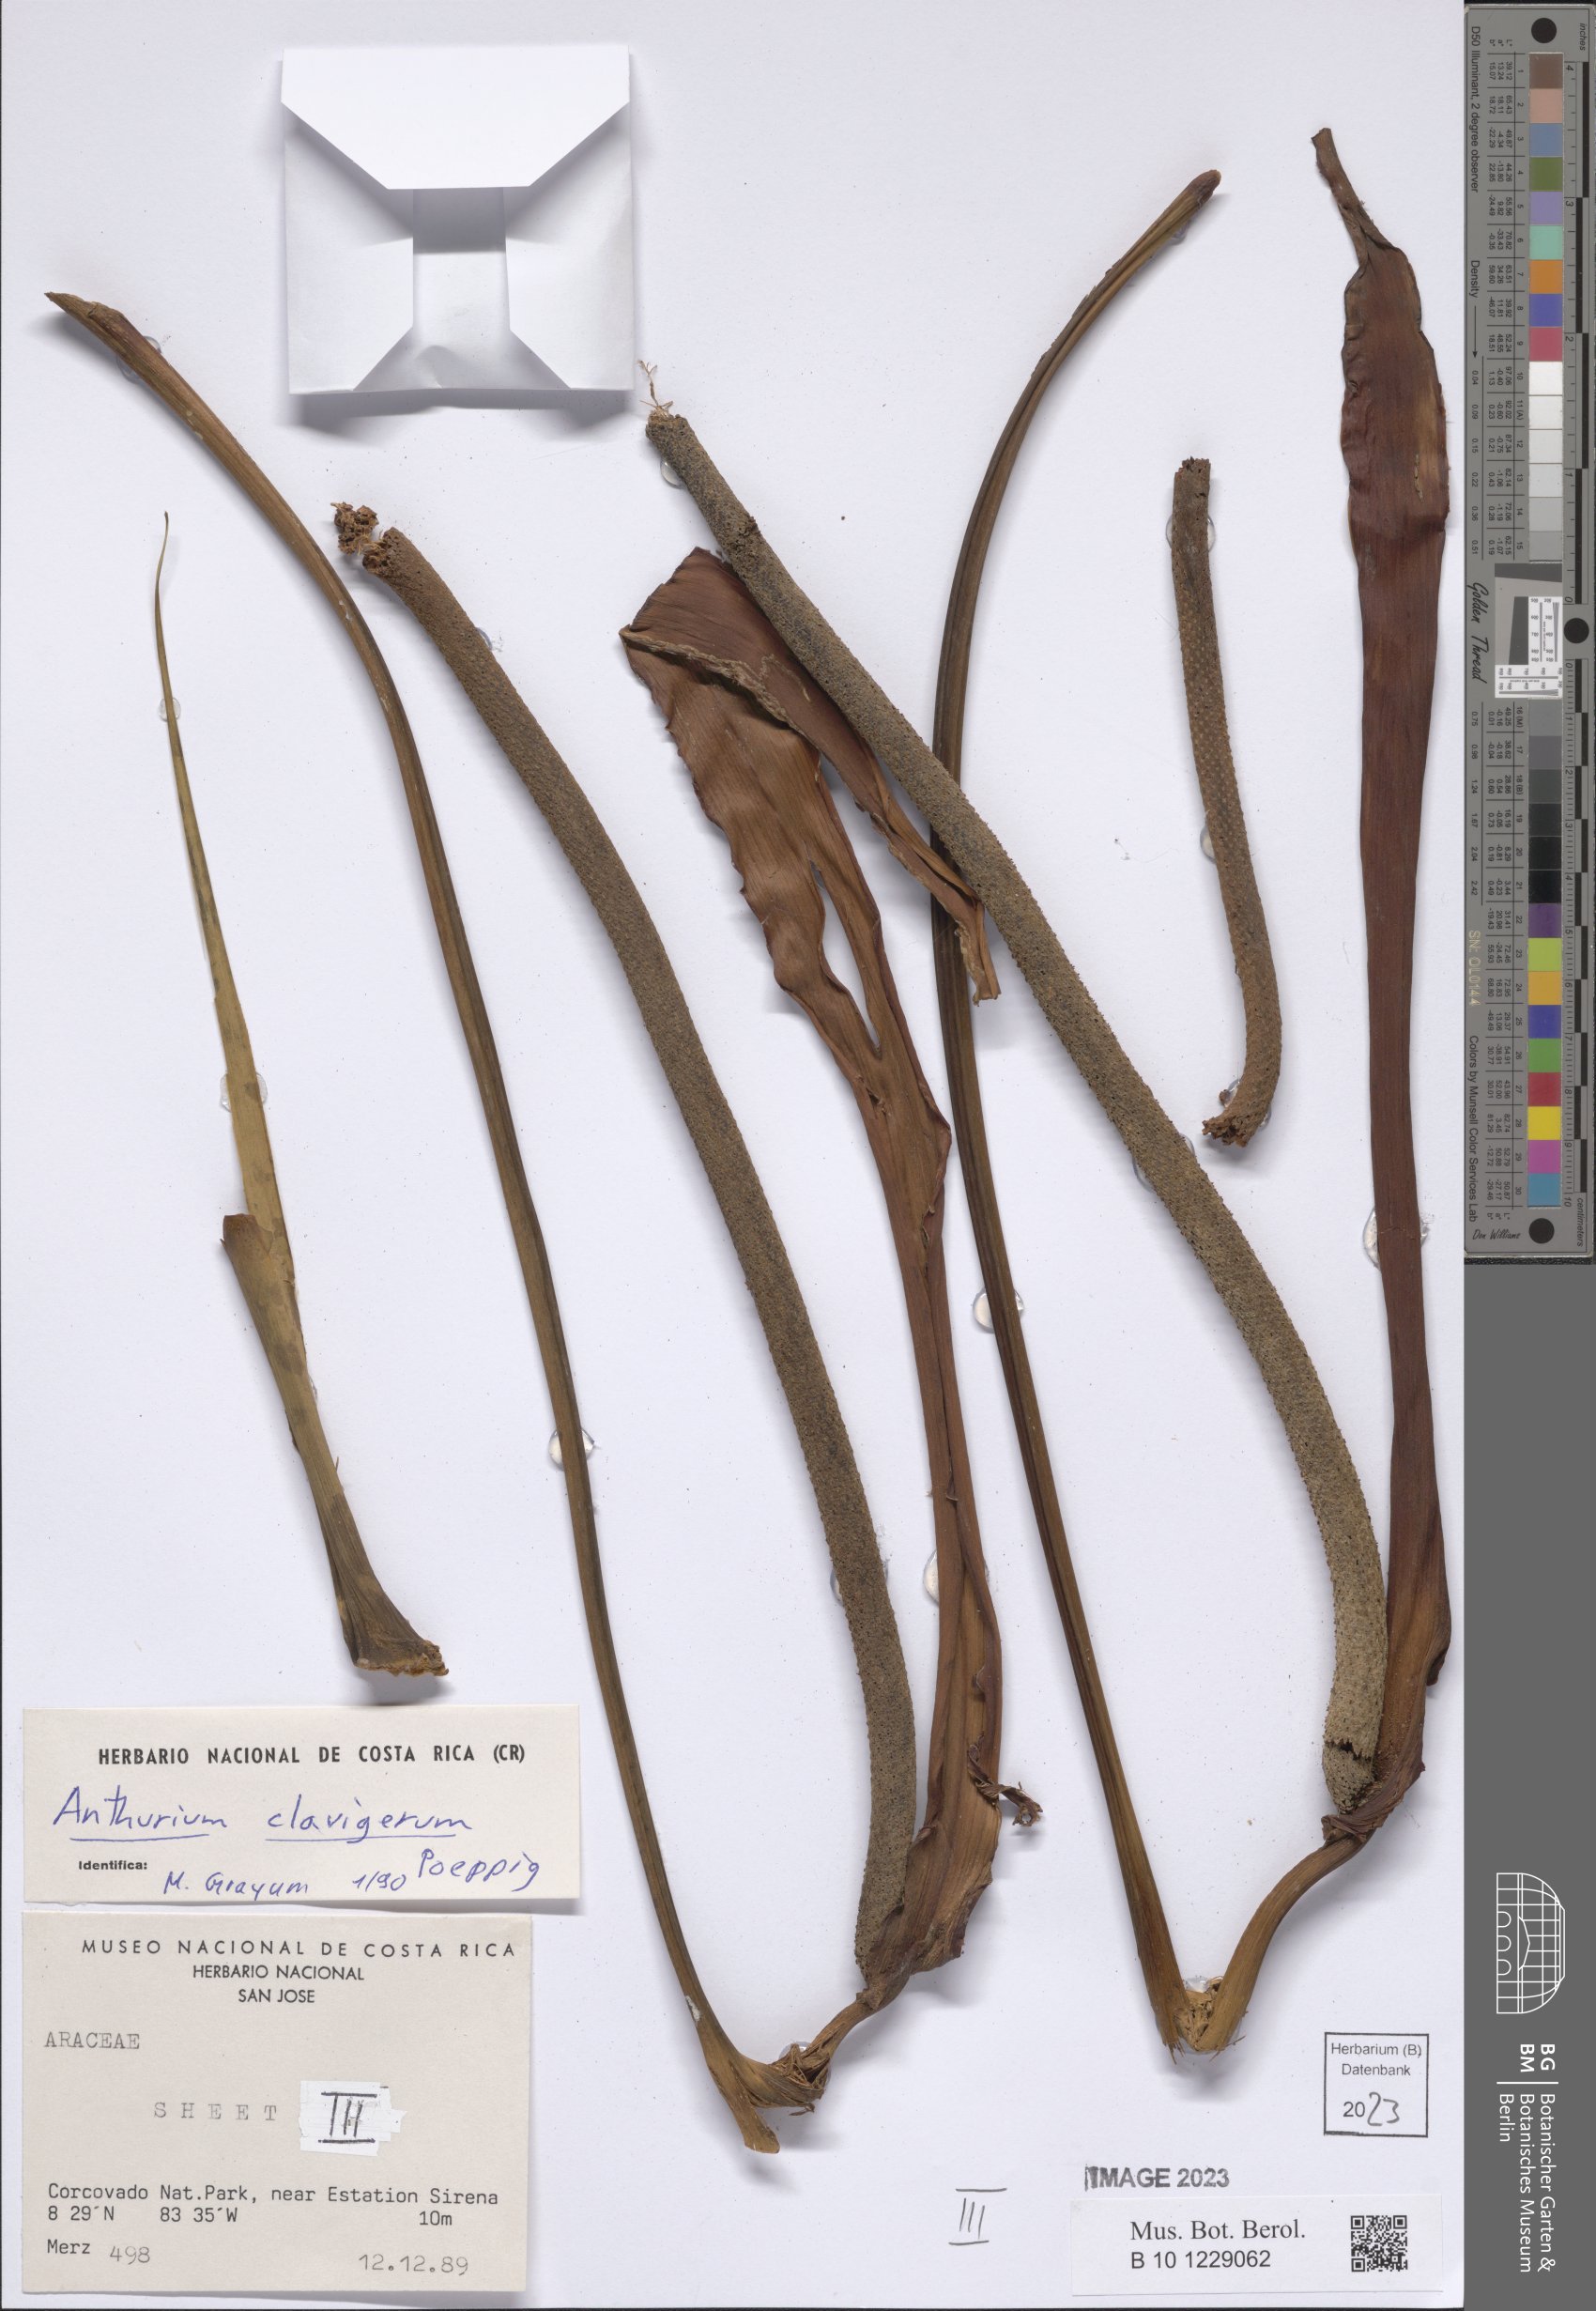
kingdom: Plantae
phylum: Tracheophyta
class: Liliopsida
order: Alismatales
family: Araceae
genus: Anthurium
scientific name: Anthurium clavigerum
